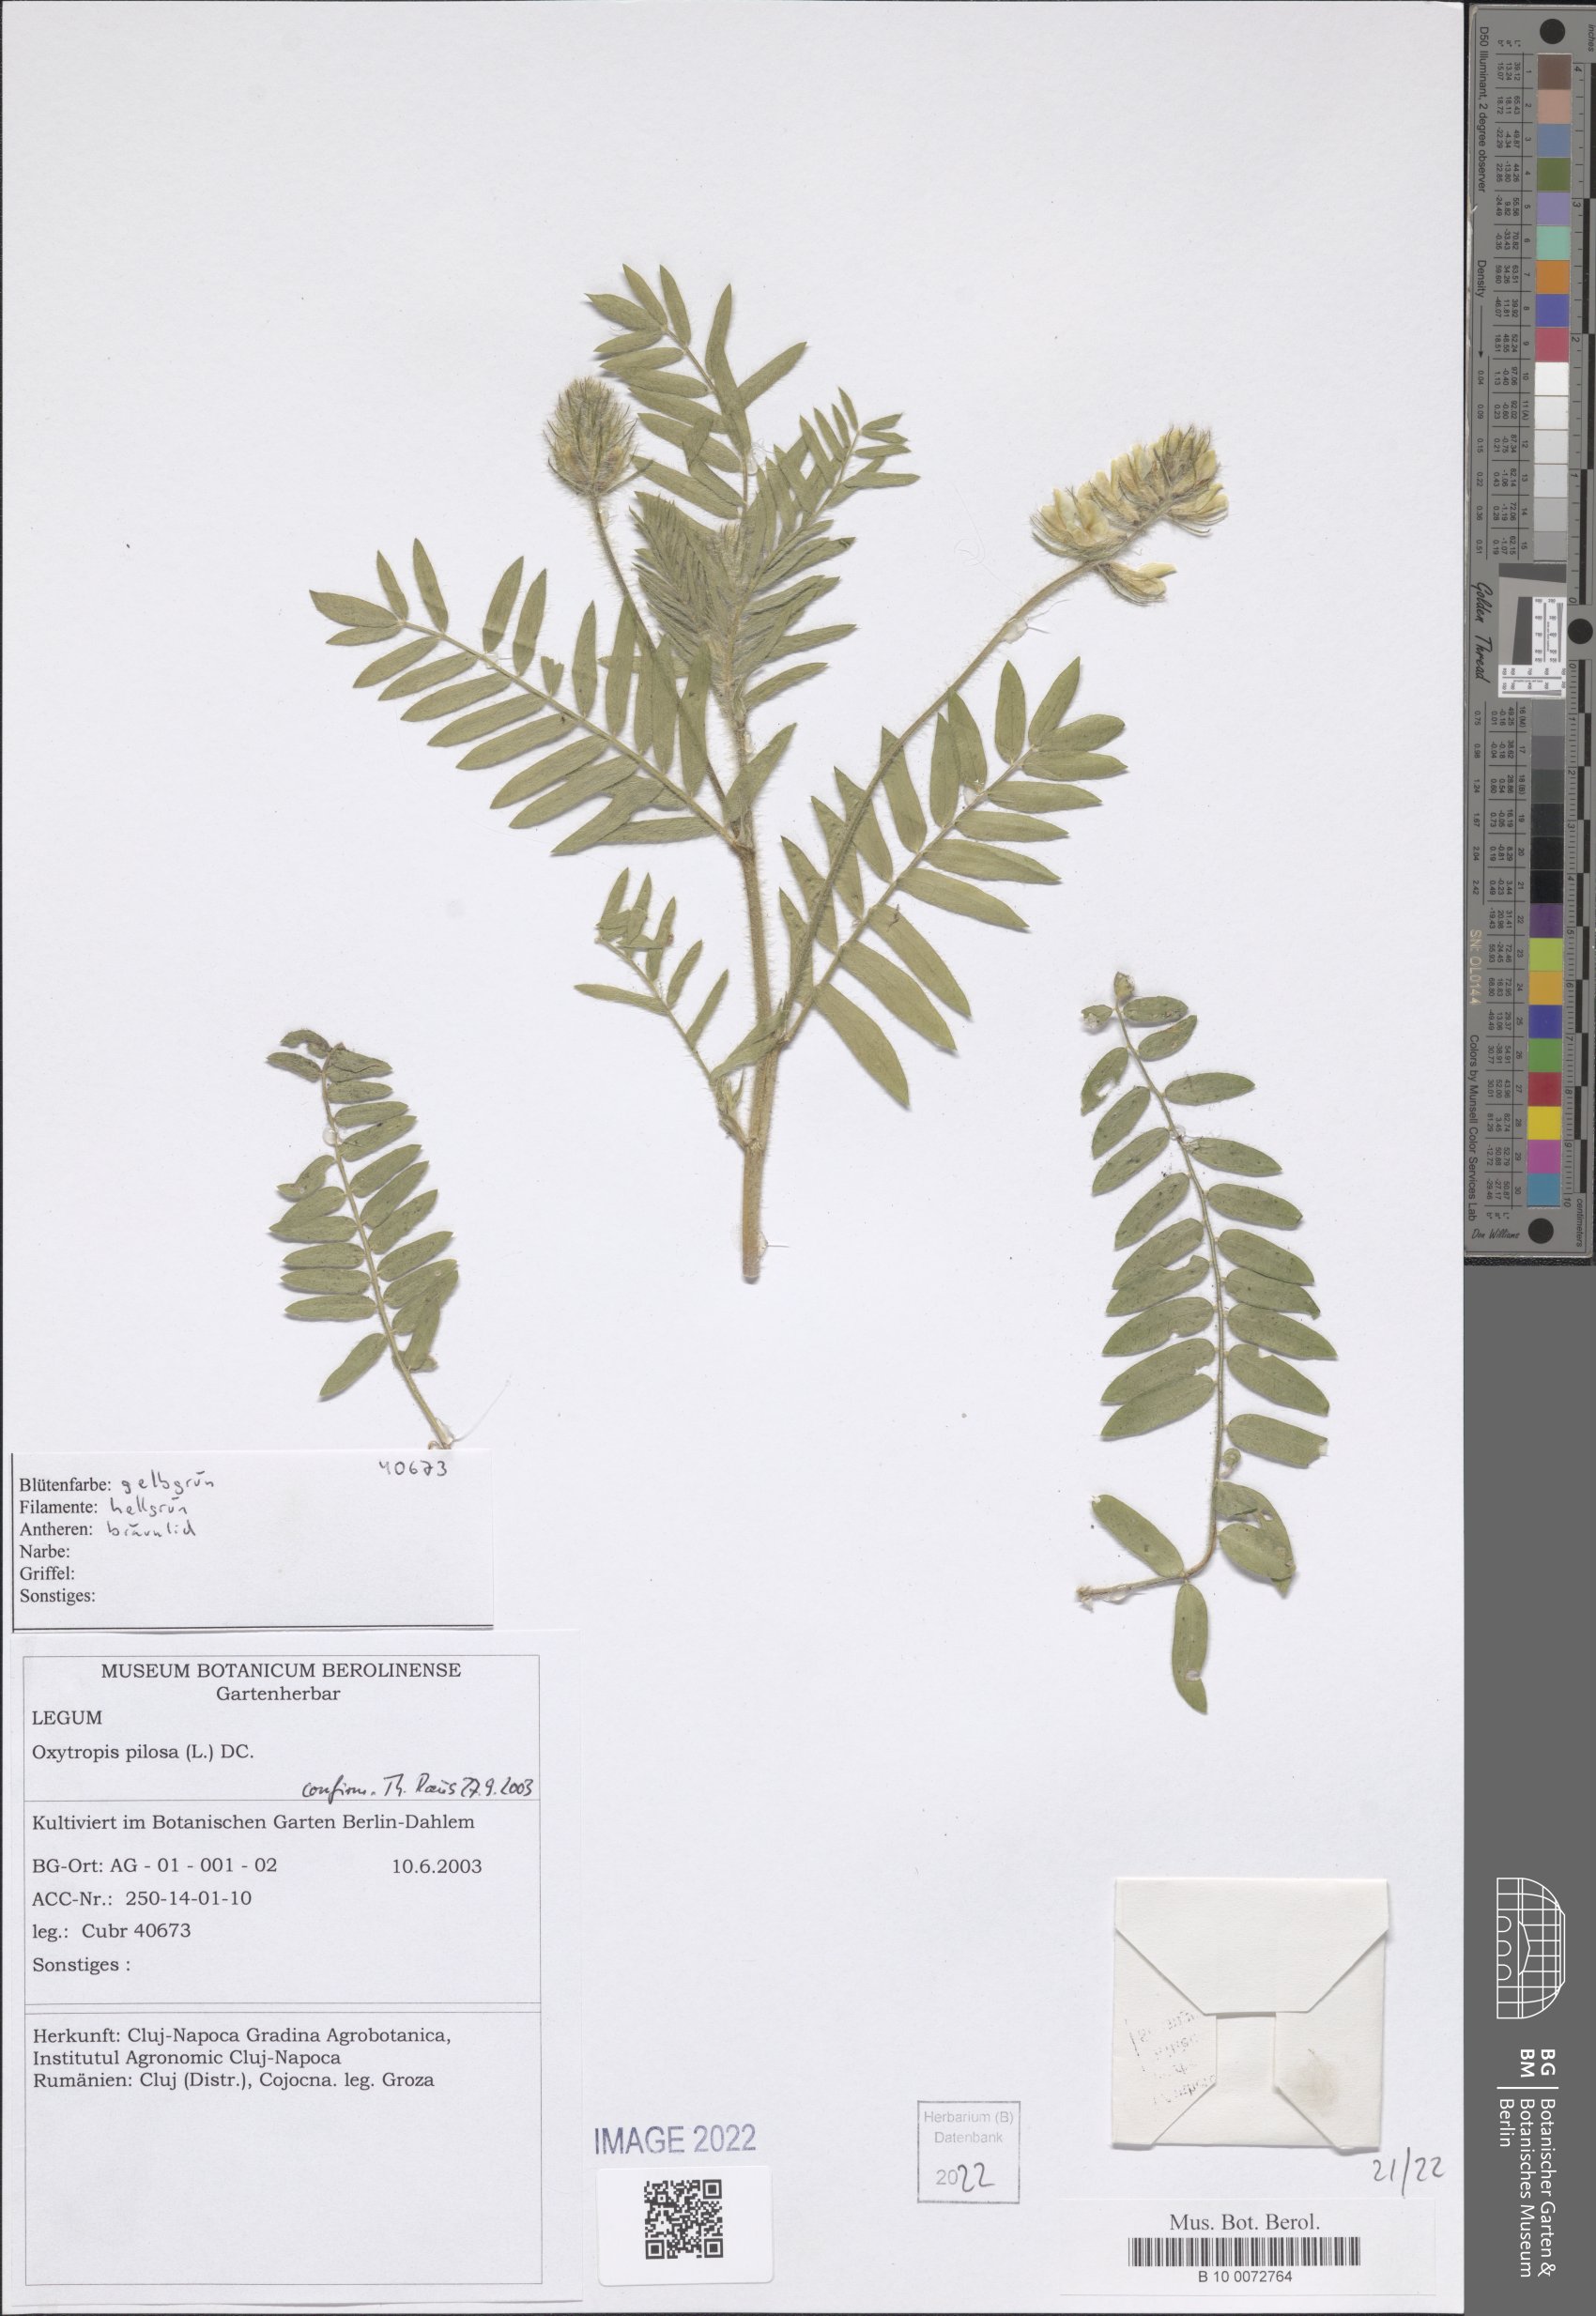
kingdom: Plantae
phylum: Tracheophyta
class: Magnoliopsida
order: Fabales
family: Fabaceae
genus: Oxytropis
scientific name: Oxytropis pilosa
